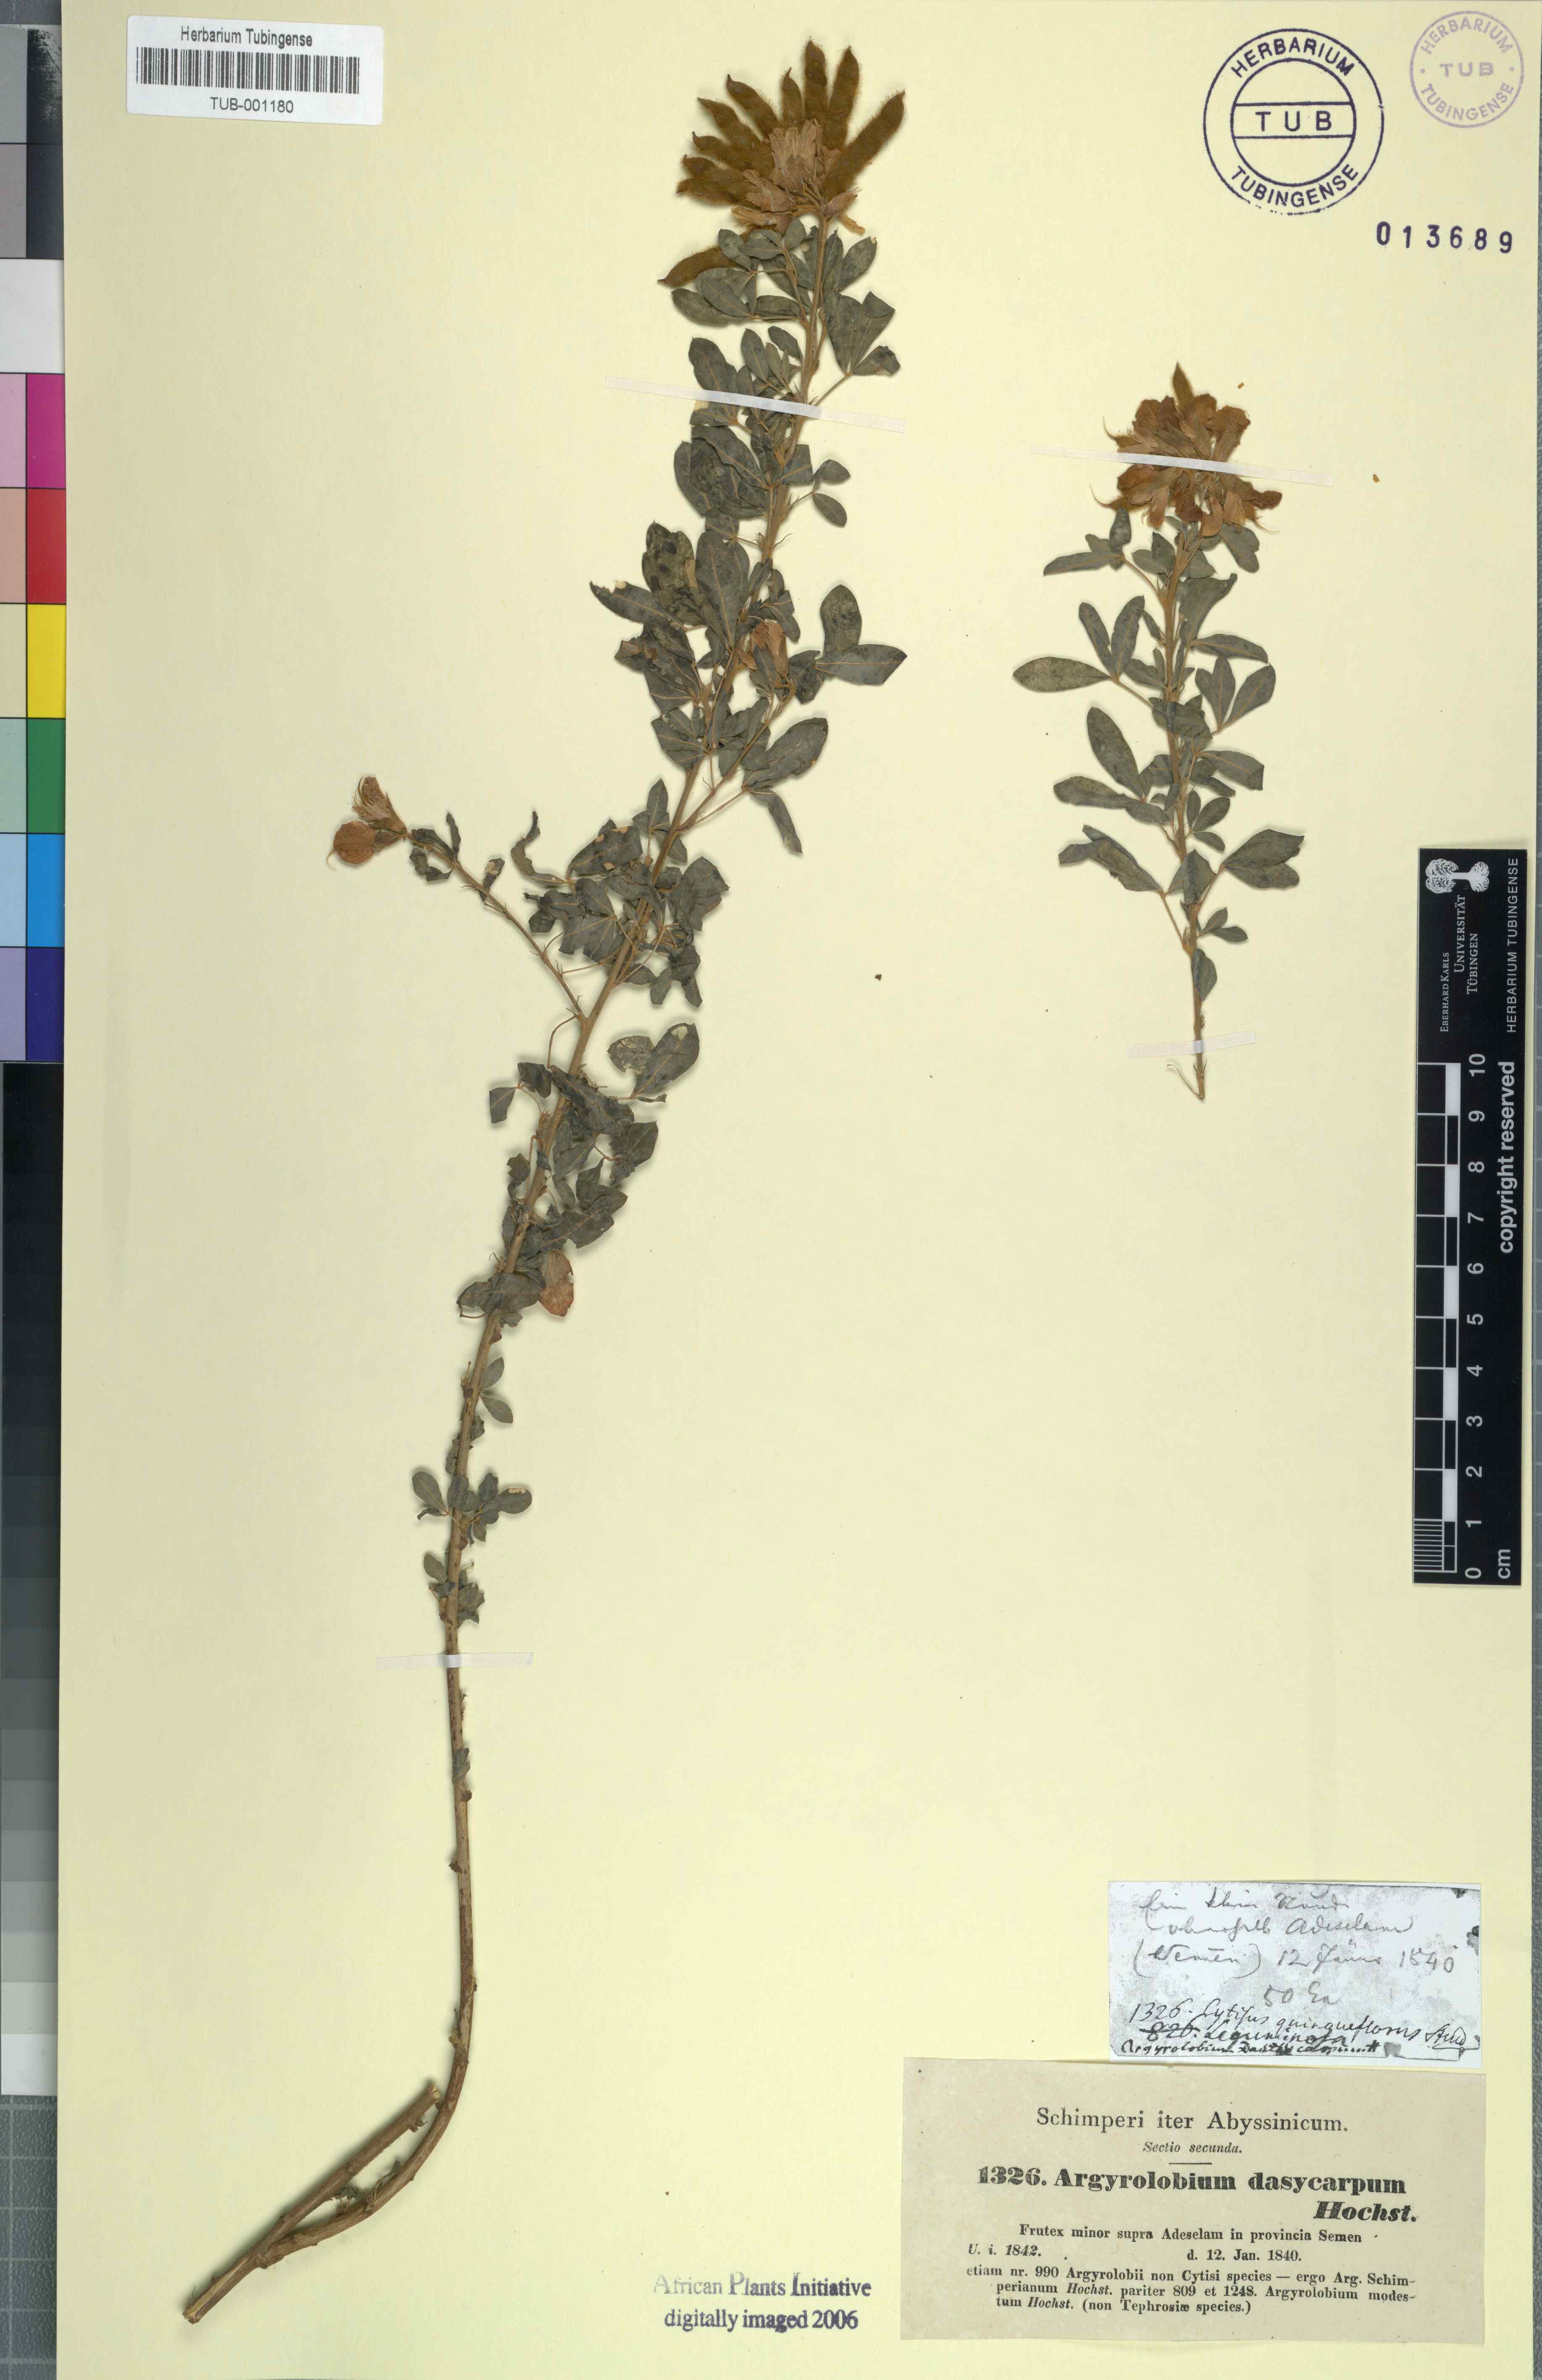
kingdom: Plantae
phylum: Tracheophyta
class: Magnoliopsida
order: Fabales
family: Fabaceae
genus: Argyrolobium
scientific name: Argyrolobium schimperianum
